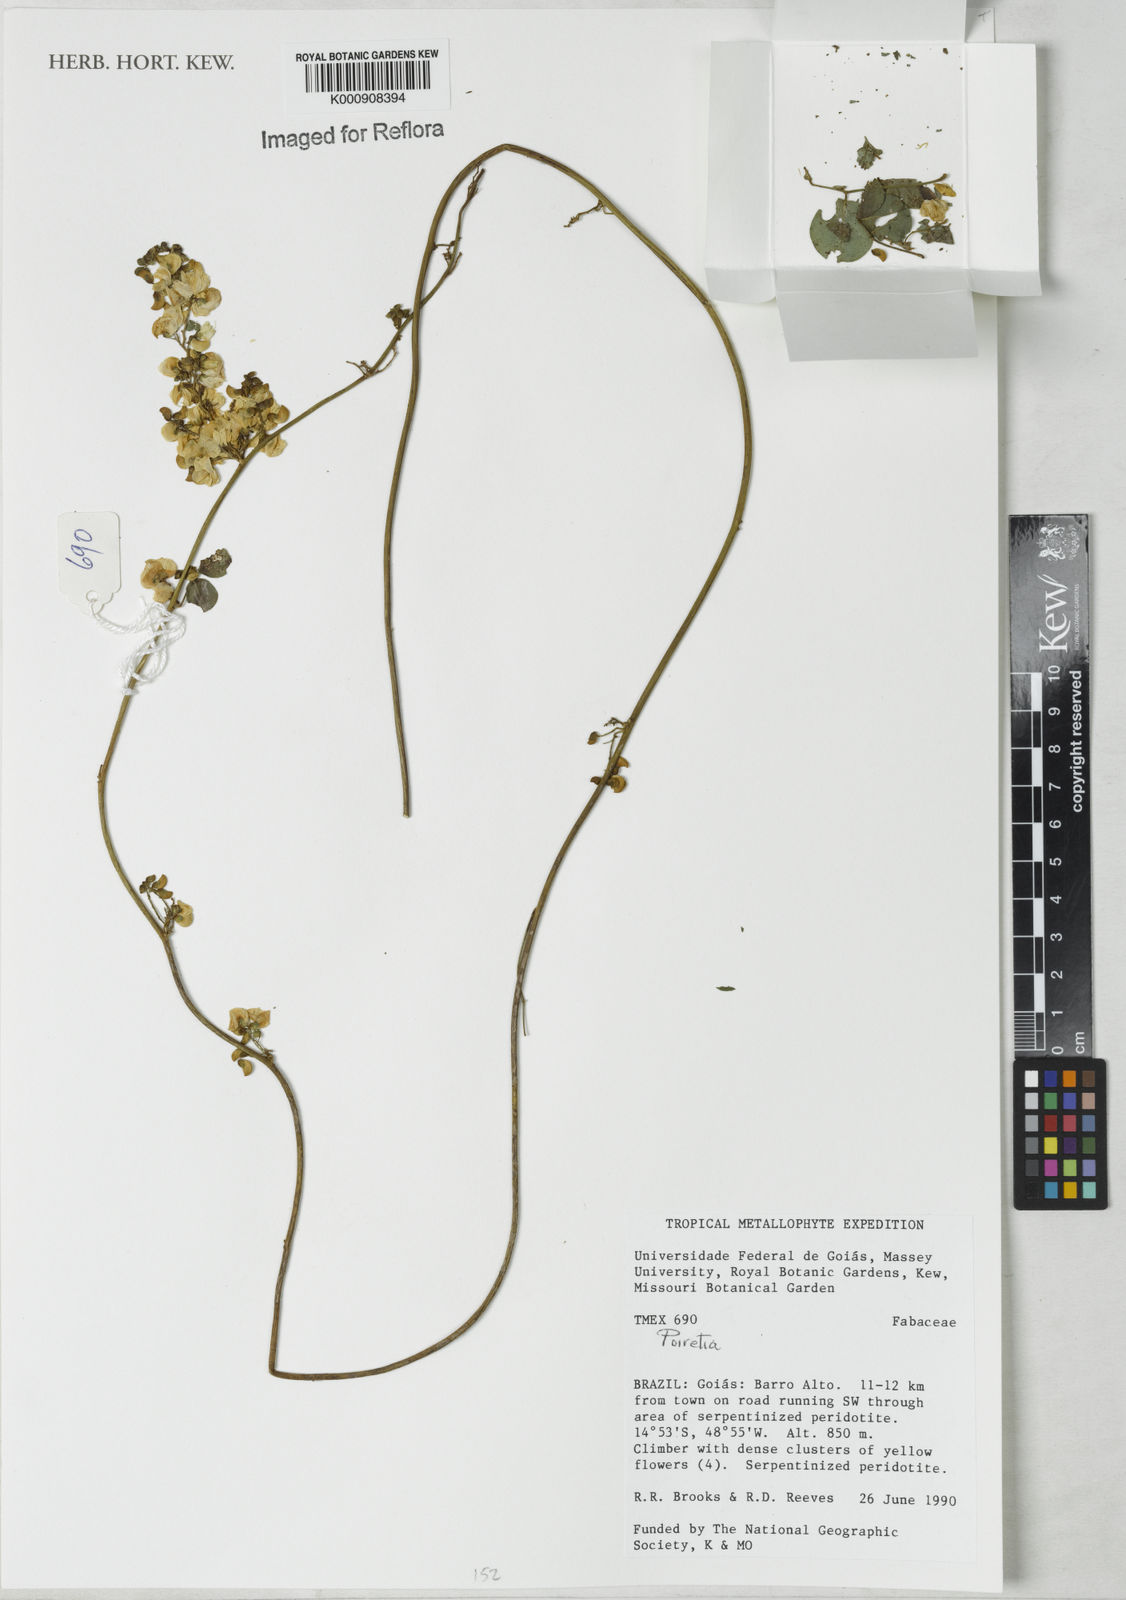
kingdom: Plantae
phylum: Tracheophyta
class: Magnoliopsida
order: Fabales
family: Fabaceae
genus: Poiretia
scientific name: Poiretia
